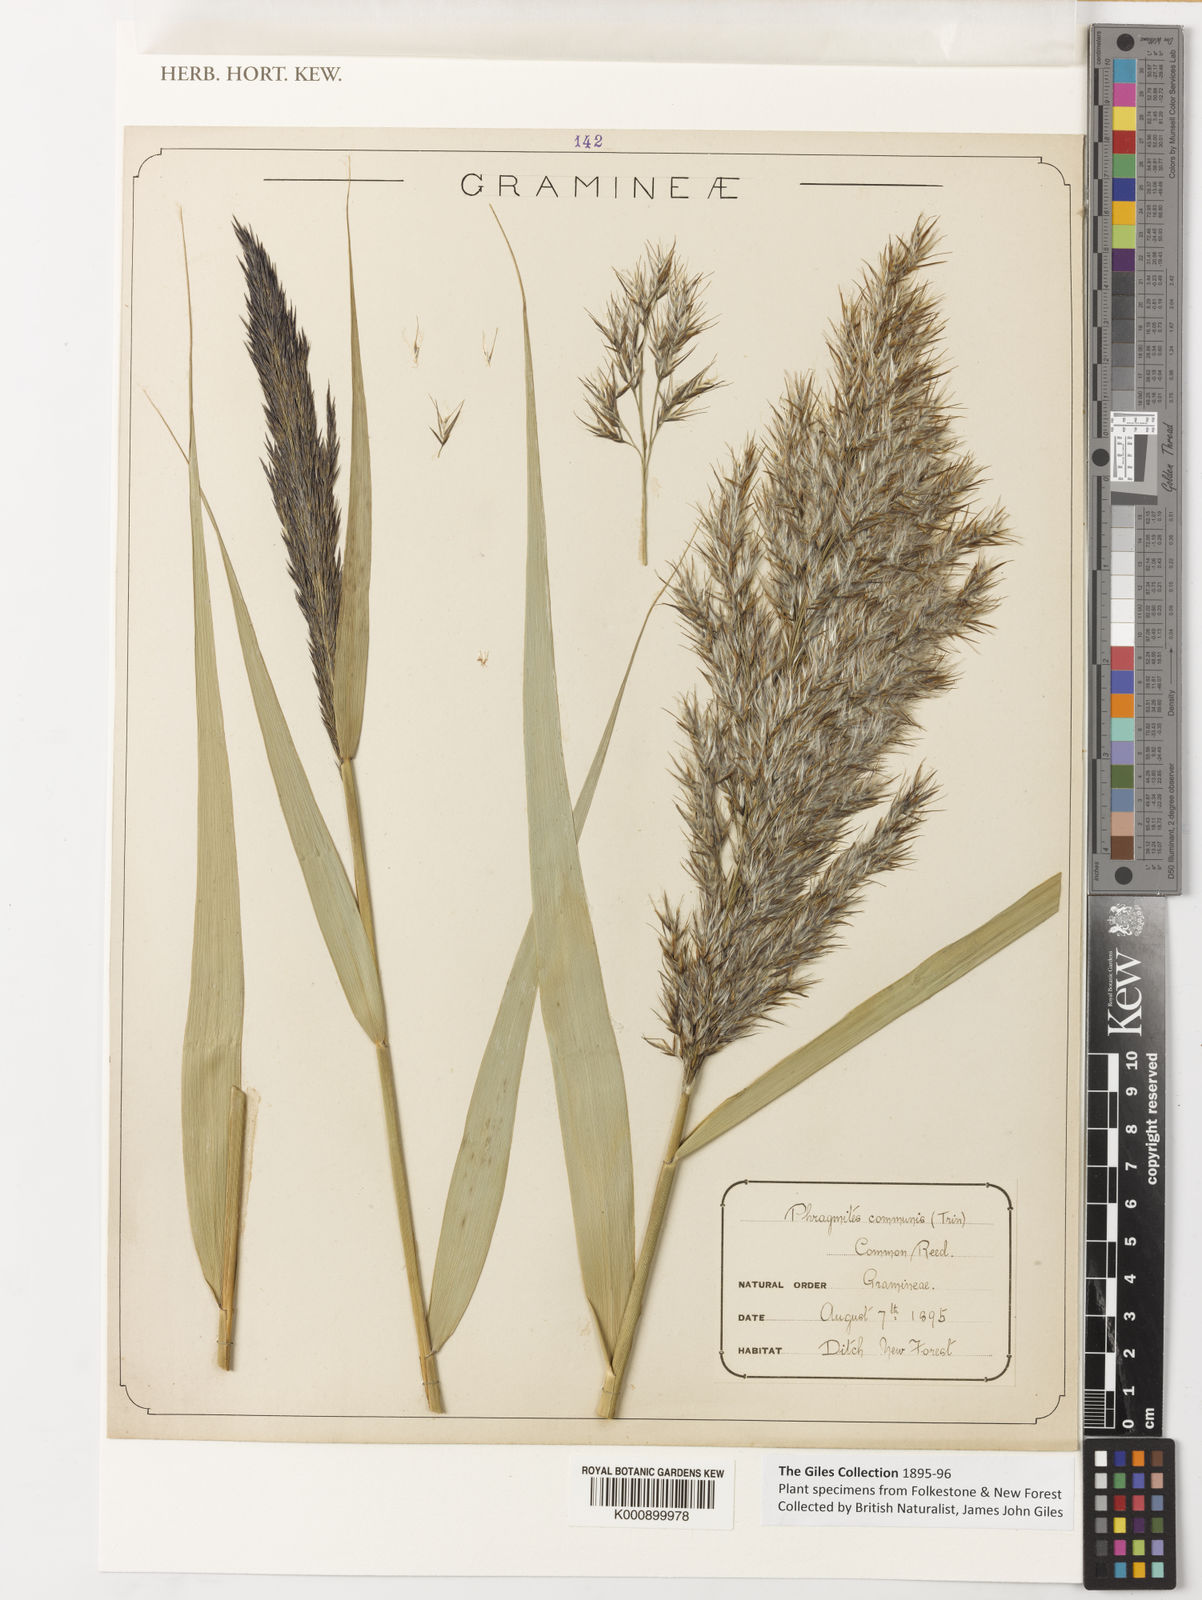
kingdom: Plantae
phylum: Tracheophyta
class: Liliopsida
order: Poales
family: Poaceae
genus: Phragmites
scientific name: Phragmites australis
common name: Common reed
